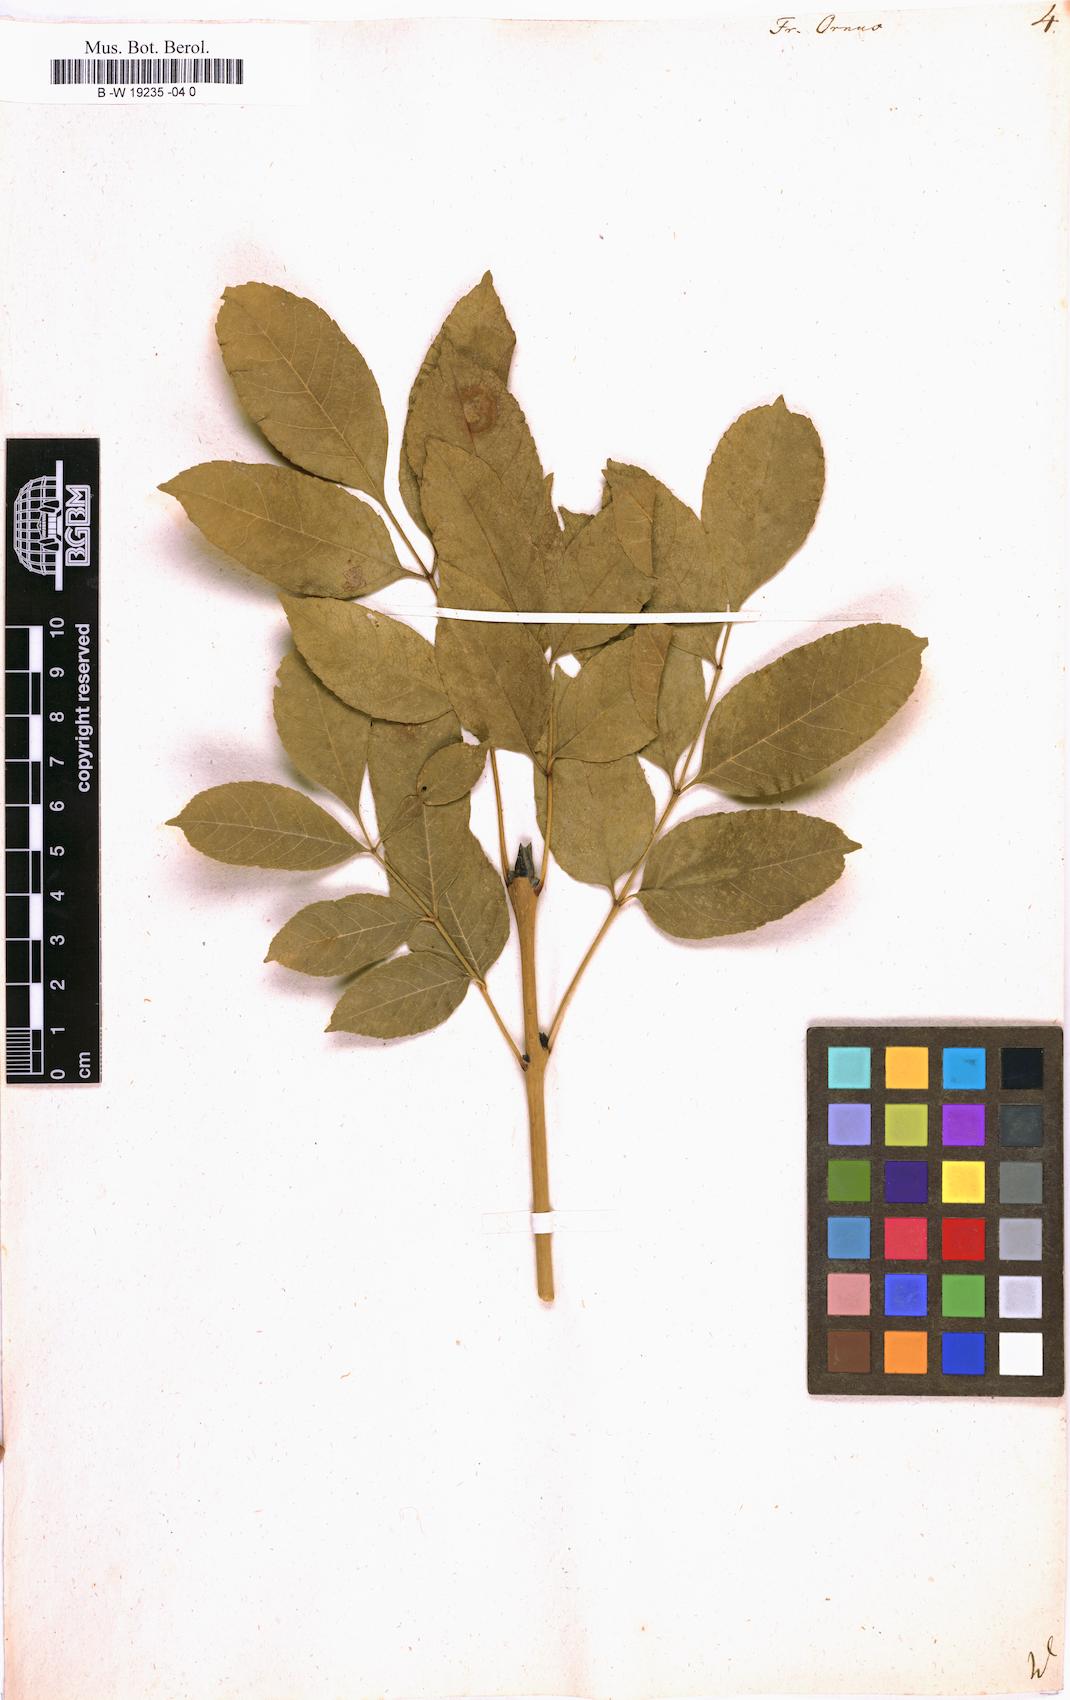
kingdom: Plantae
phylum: Tracheophyta
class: Magnoliopsida
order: Lamiales
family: Oleaceae
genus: Fraxinus
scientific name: Fraxinus ornus
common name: Manna ash
